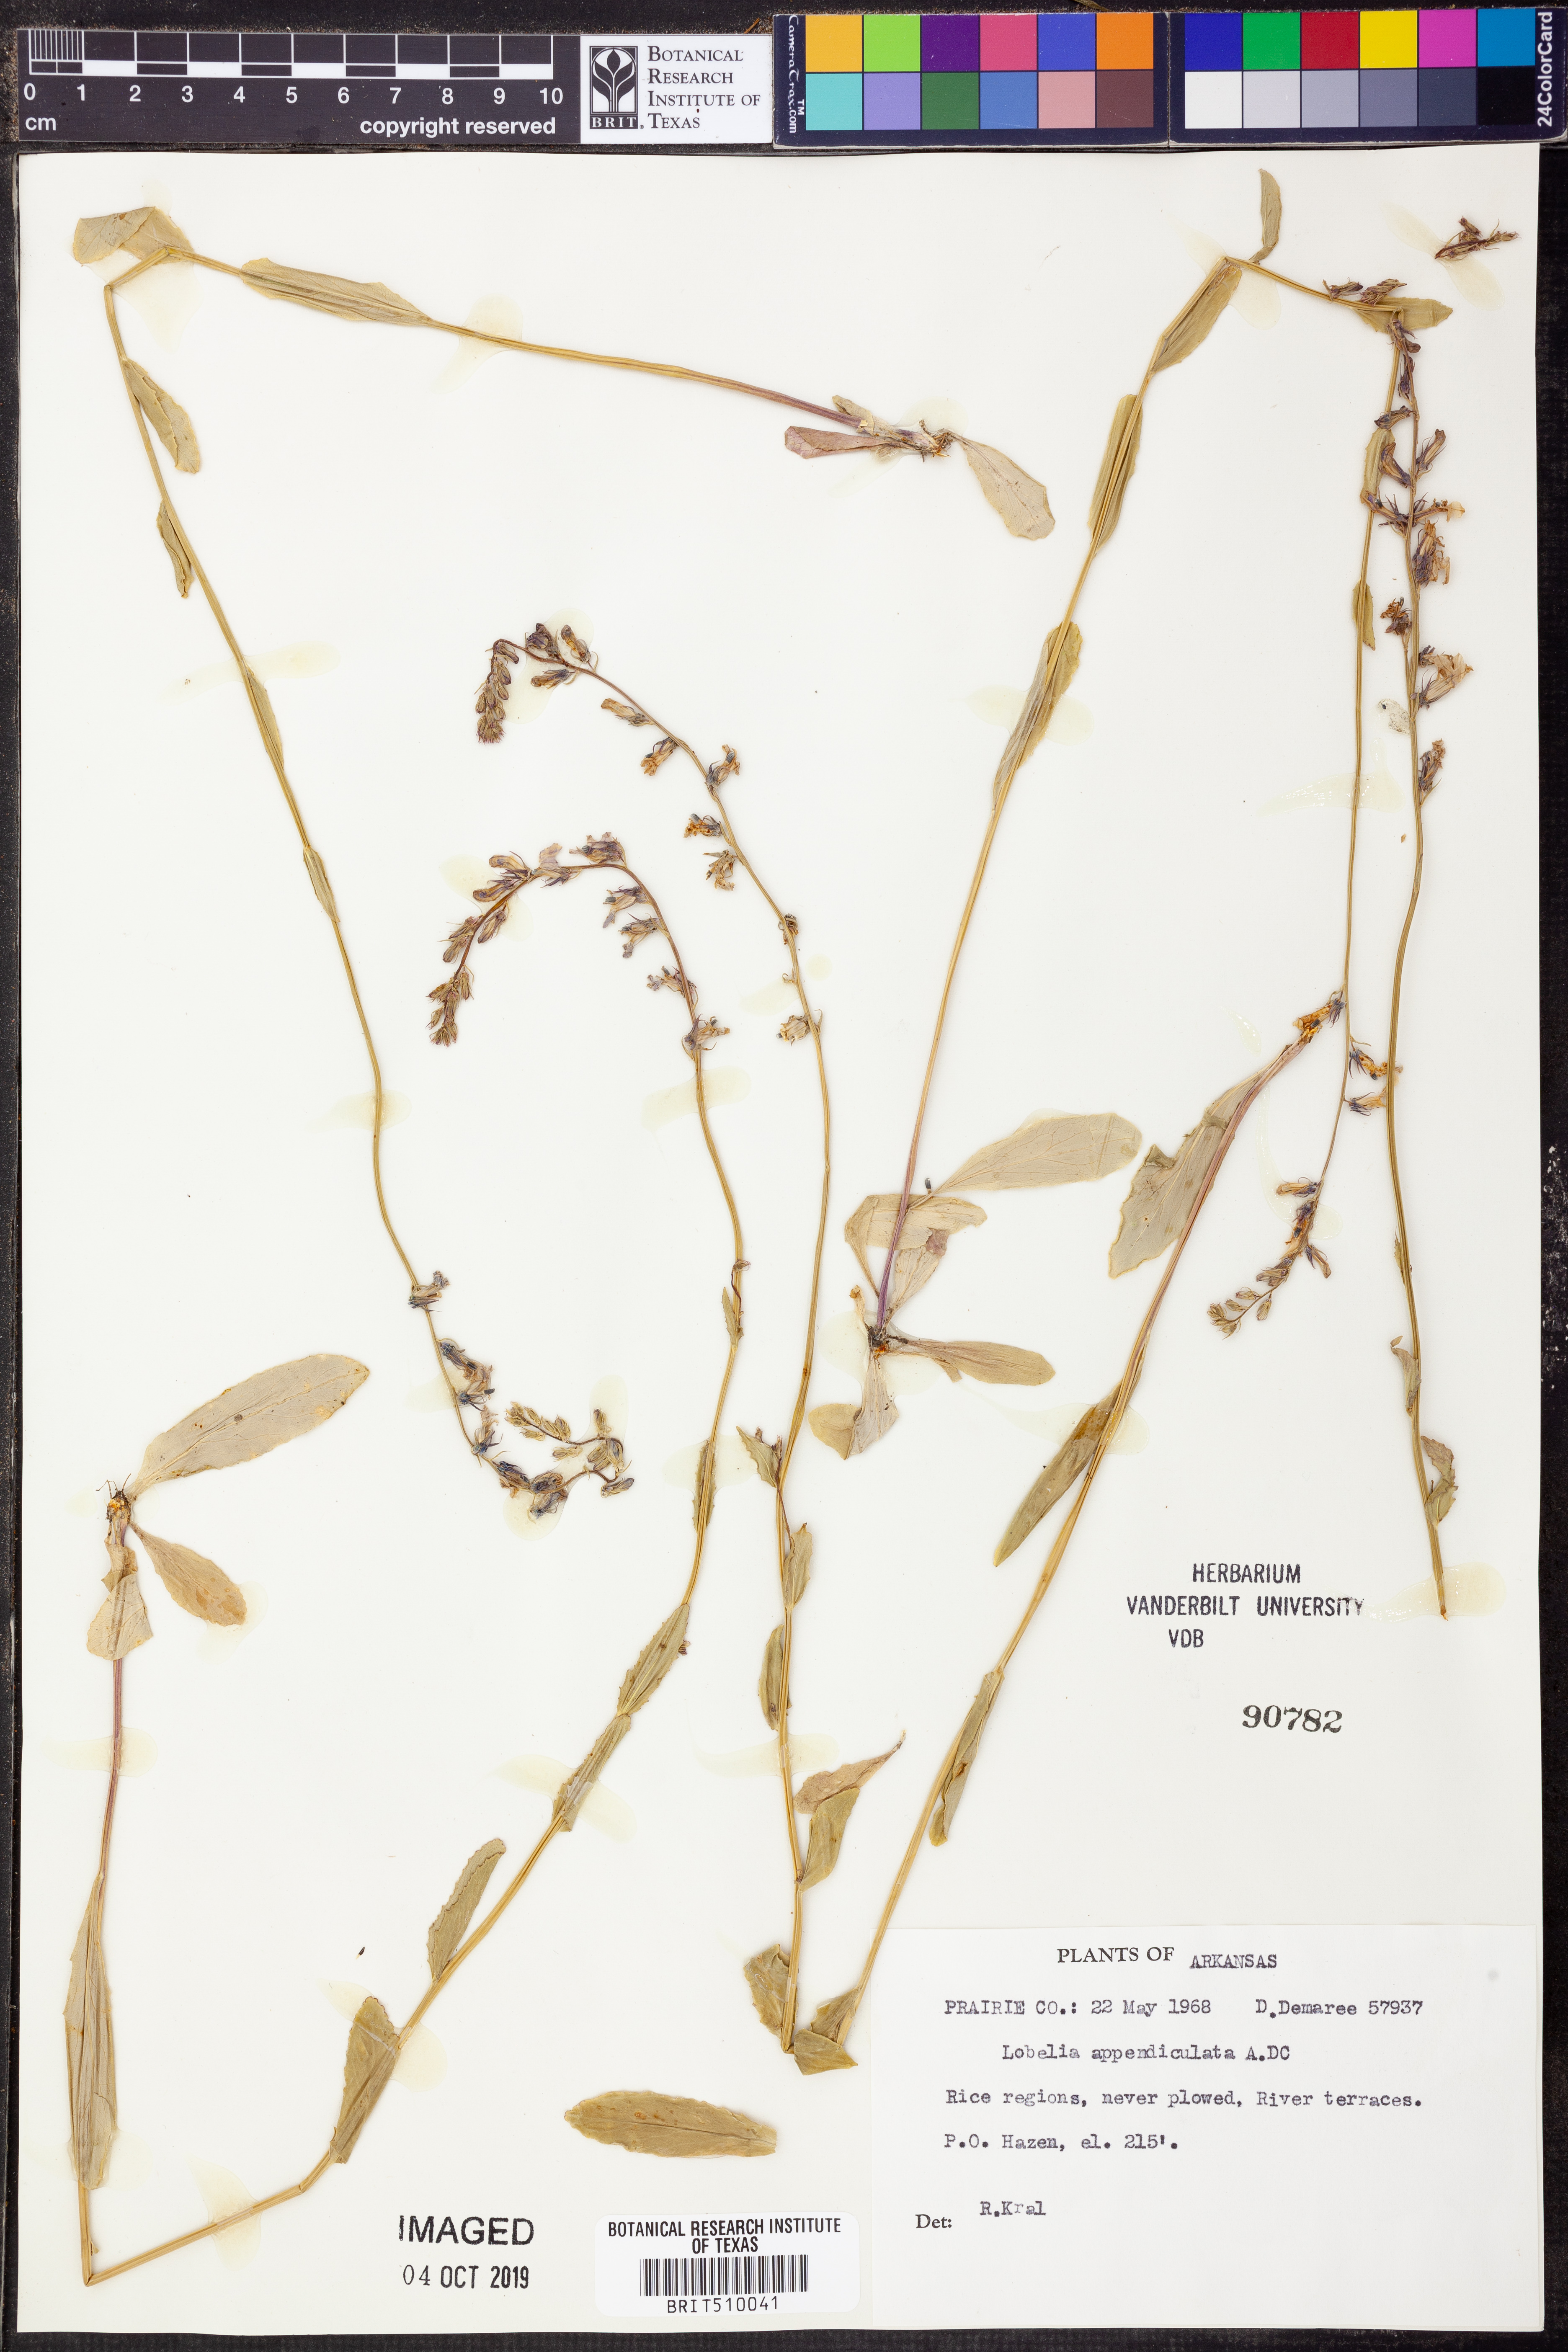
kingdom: Plantae
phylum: Tracheophyta
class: Magnoliopsida
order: Asterales
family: Campanulaceae
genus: Lobelia
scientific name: Lobelia appendiculata
